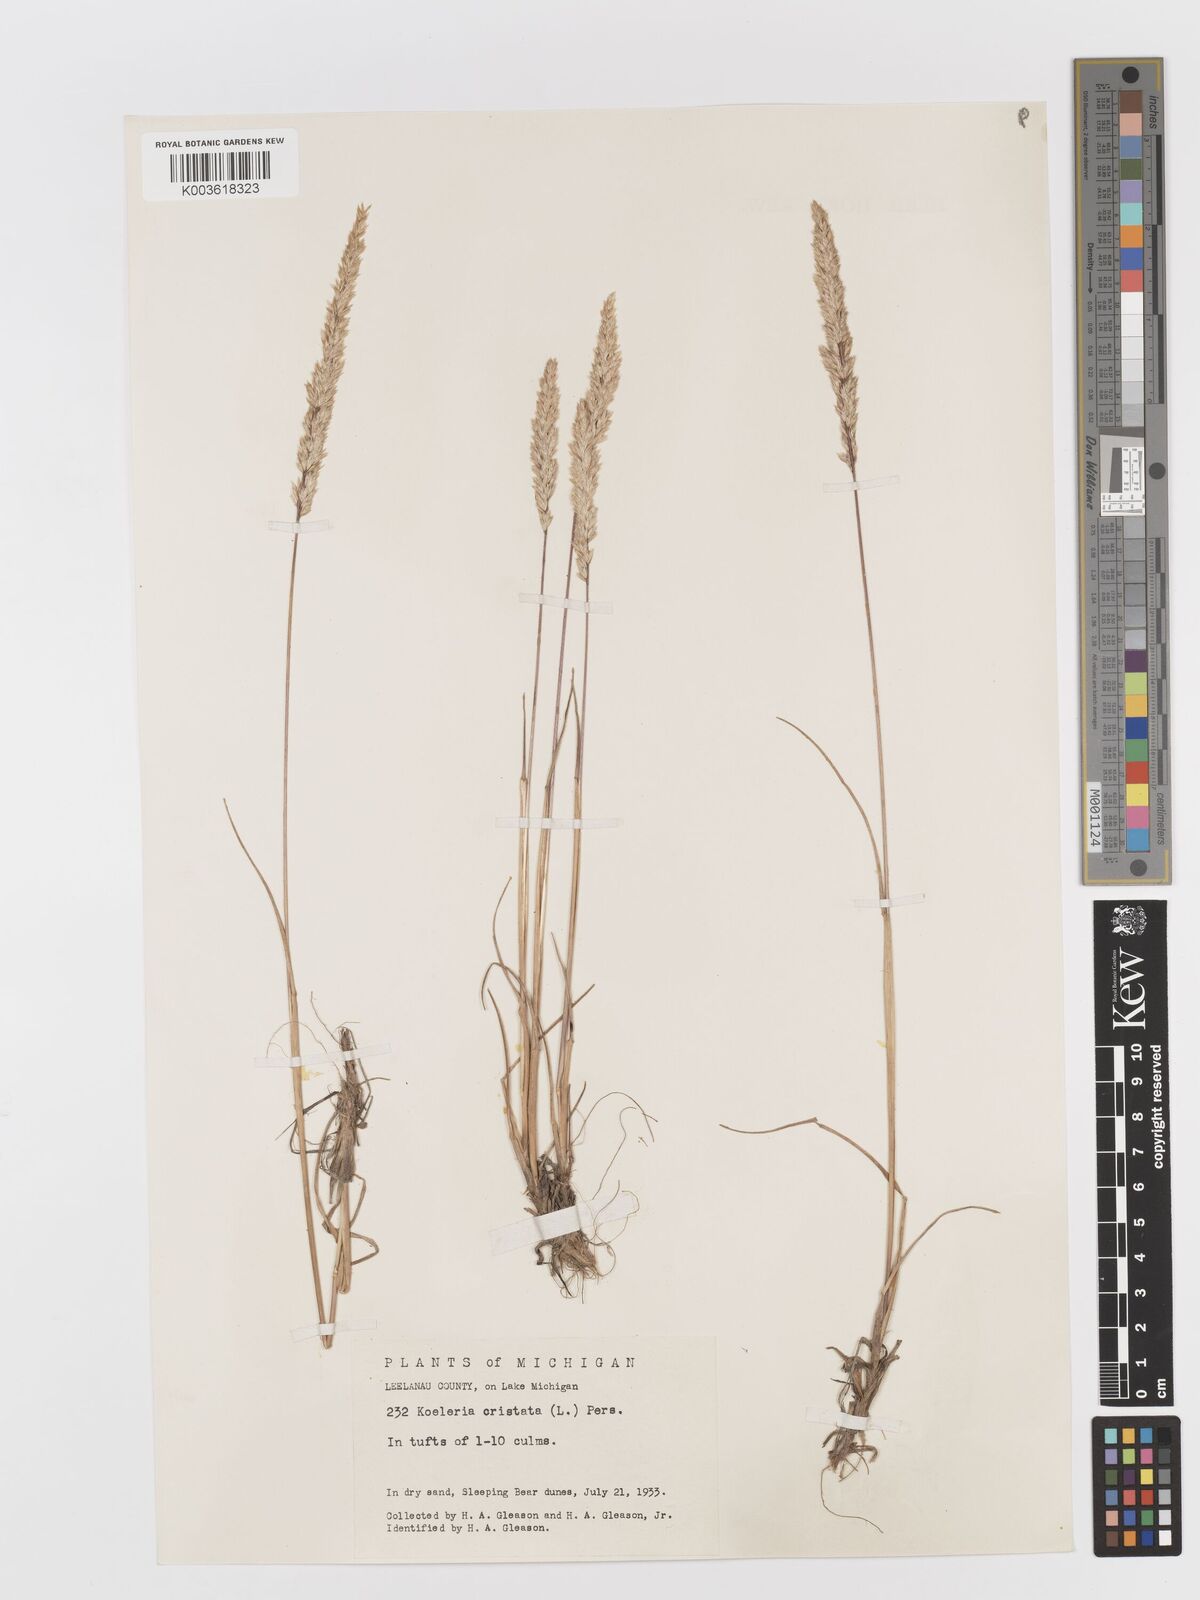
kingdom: Plantae
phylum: Tracheophyta
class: Liliopsida
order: Poales
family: Poaceae
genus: Koeleria
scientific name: Koeleria
